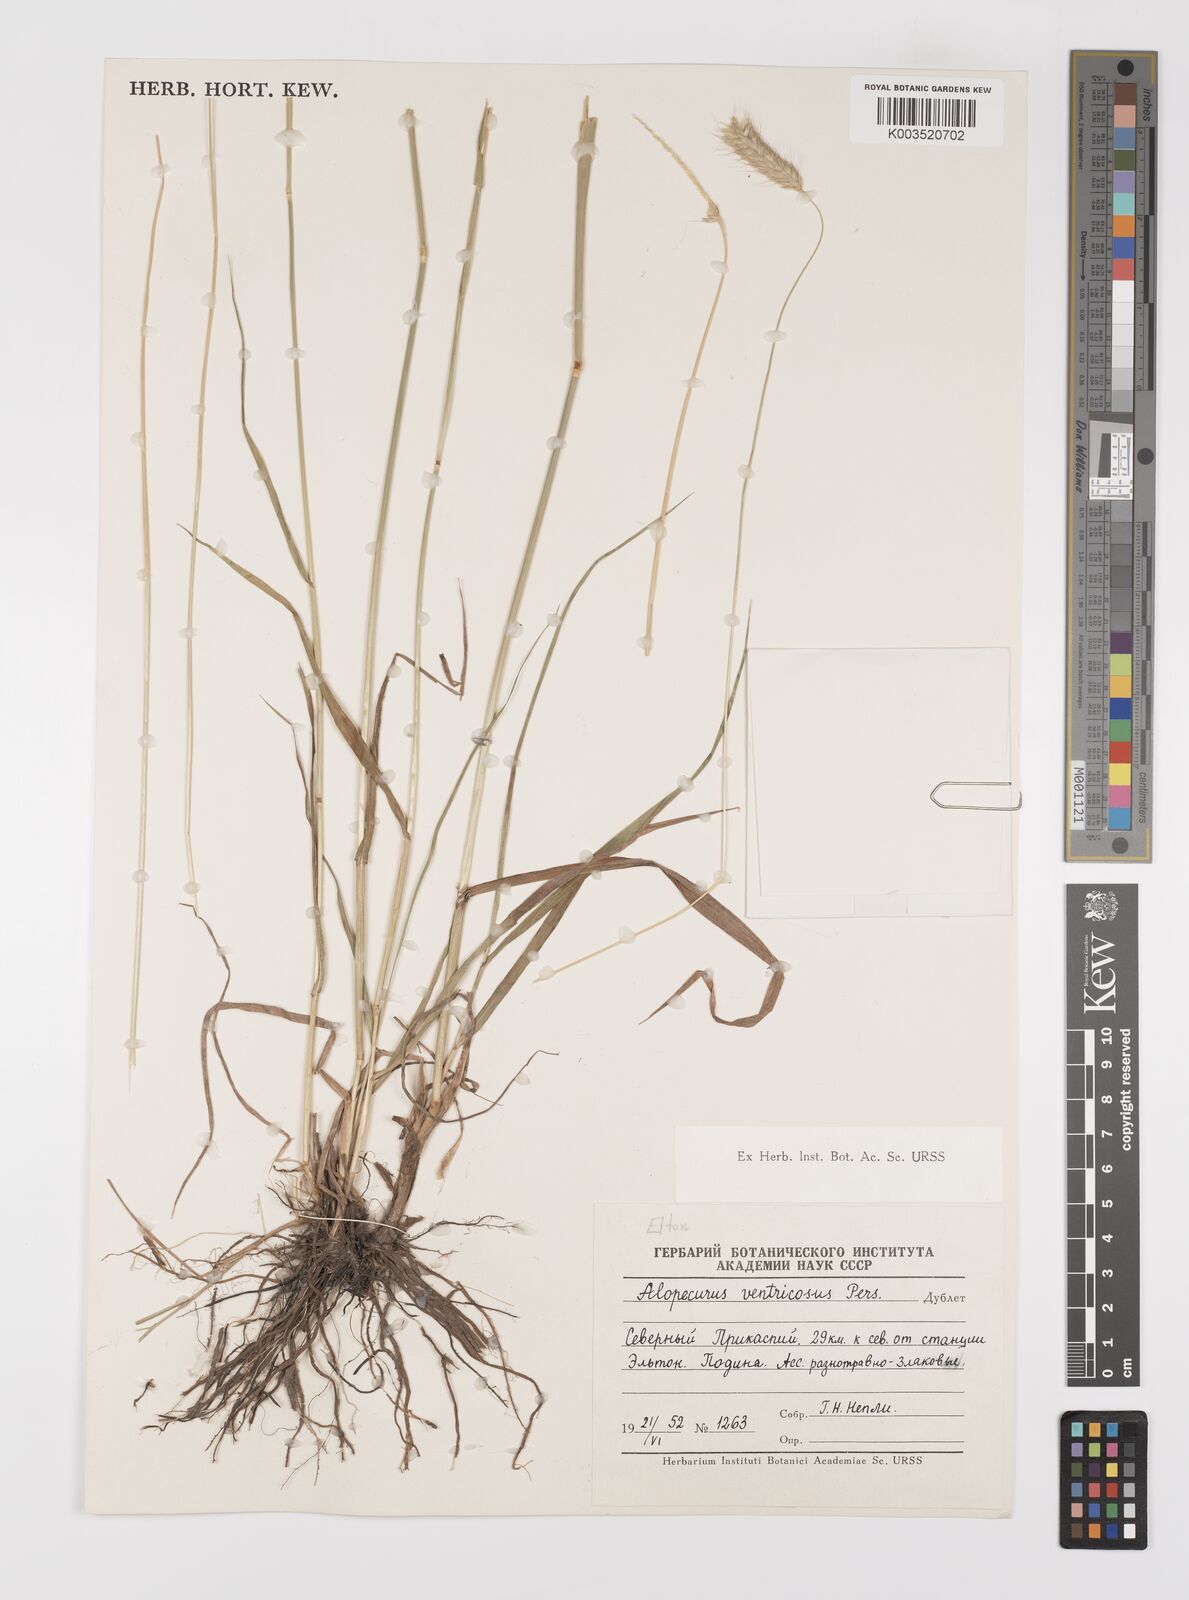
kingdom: Plantae
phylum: Tracheophyta
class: Liliopsida
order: Poales
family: Poaceae
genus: Alopecurus
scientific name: Alopecurus arundinaceus
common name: Creeping meadow foxtail
